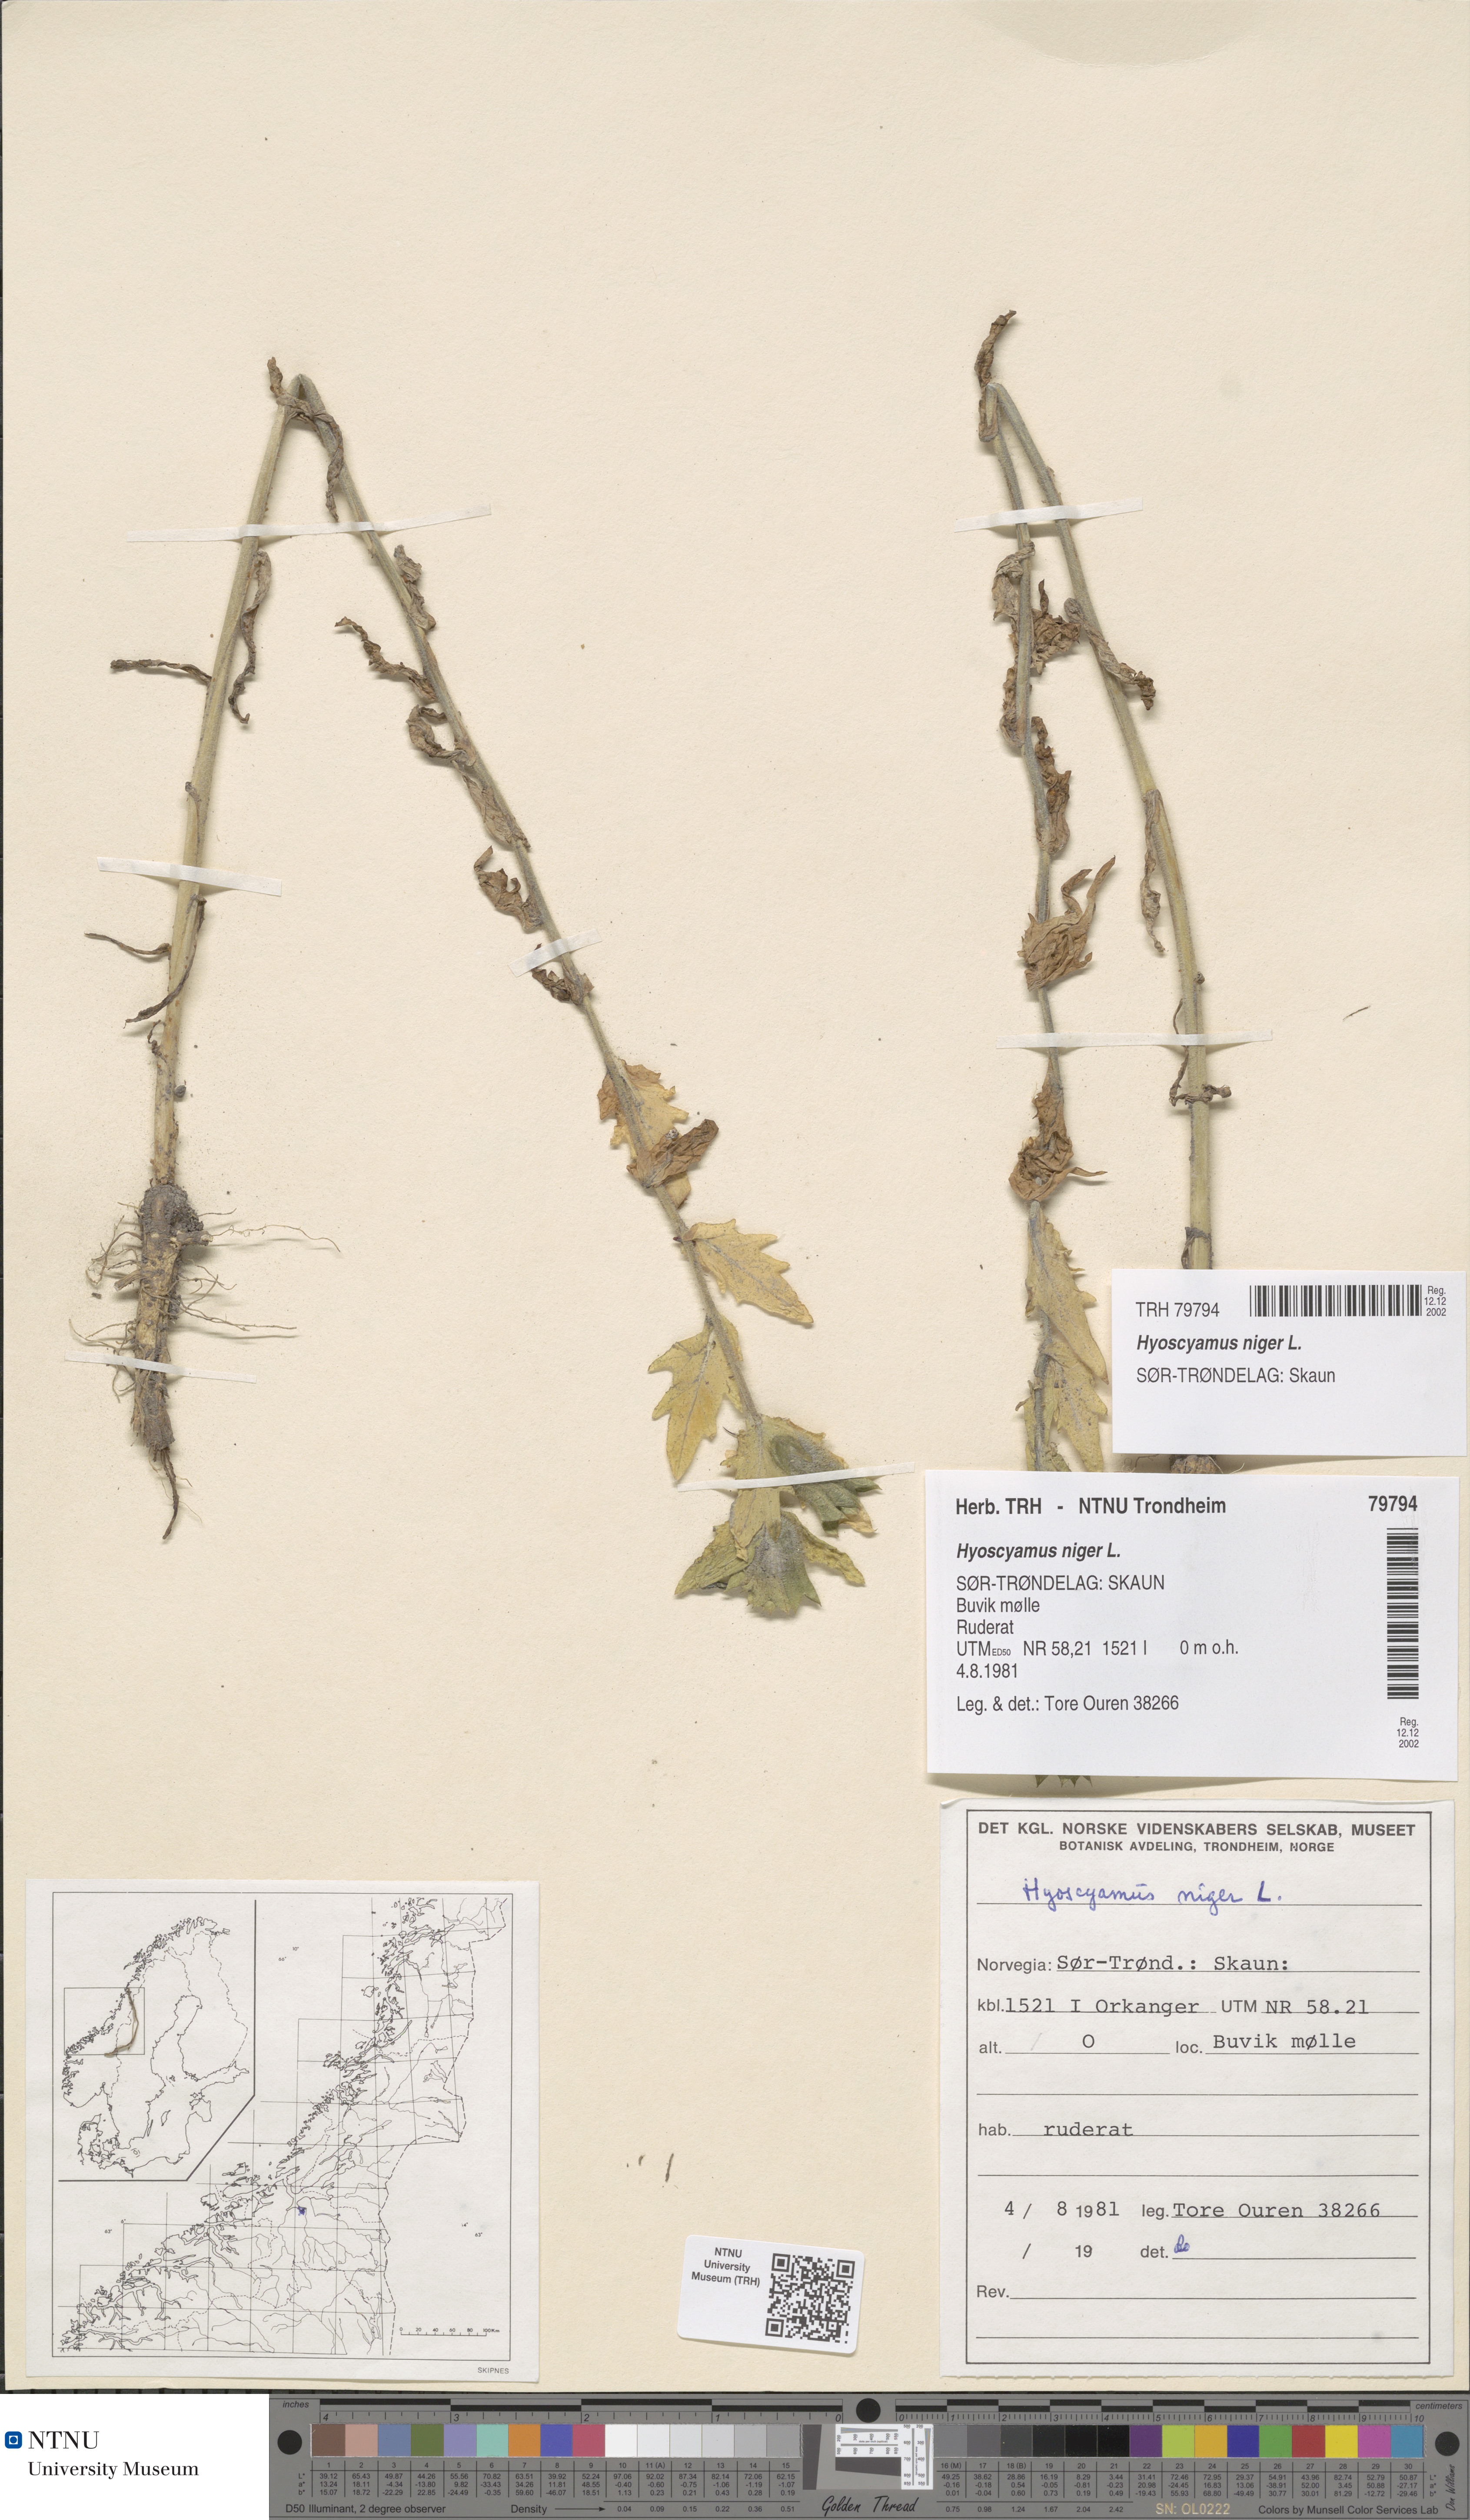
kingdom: Plantae
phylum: Tracheophyta
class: Magnoliopsida
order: Solanales
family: Solanaceae
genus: Hyoscyamus
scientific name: Hyoscyamus niger
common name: Henbane
